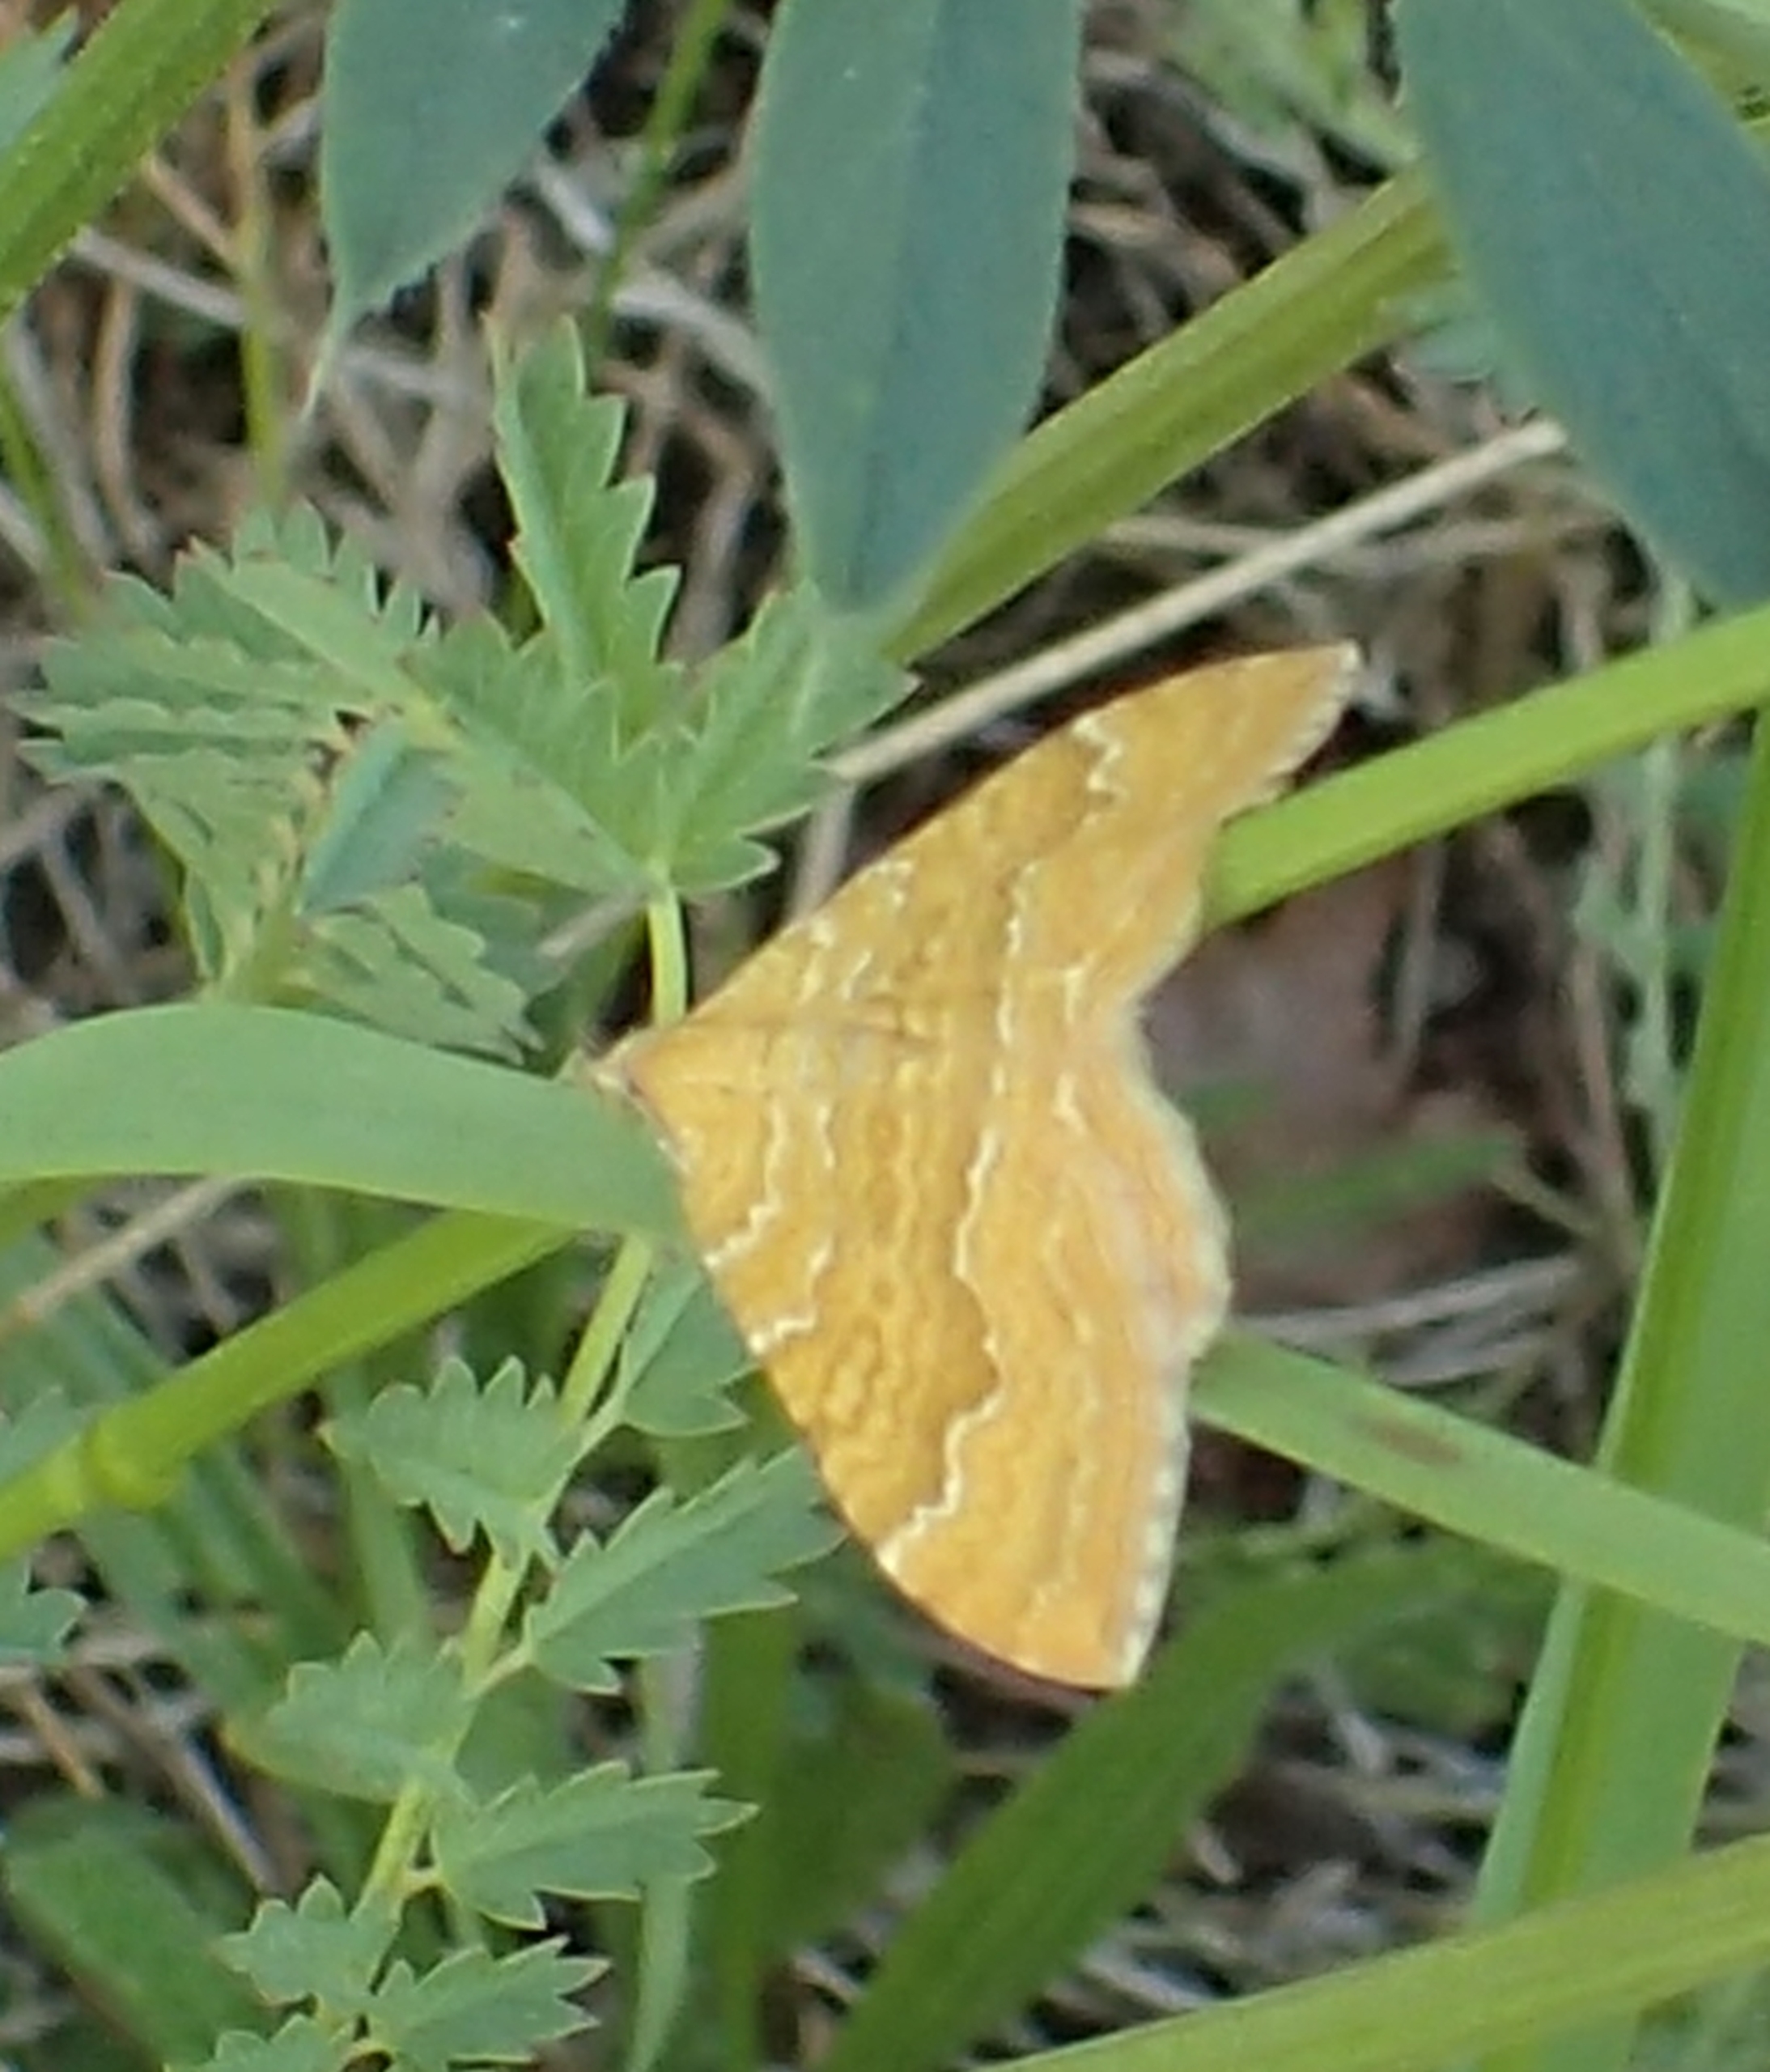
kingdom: Animalia
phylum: Arthropoda
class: Insecta
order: Lepidoptera
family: Geometridae
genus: Camptogramma
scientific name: Camptogramma bilineata
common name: Okkergul bladmåler
